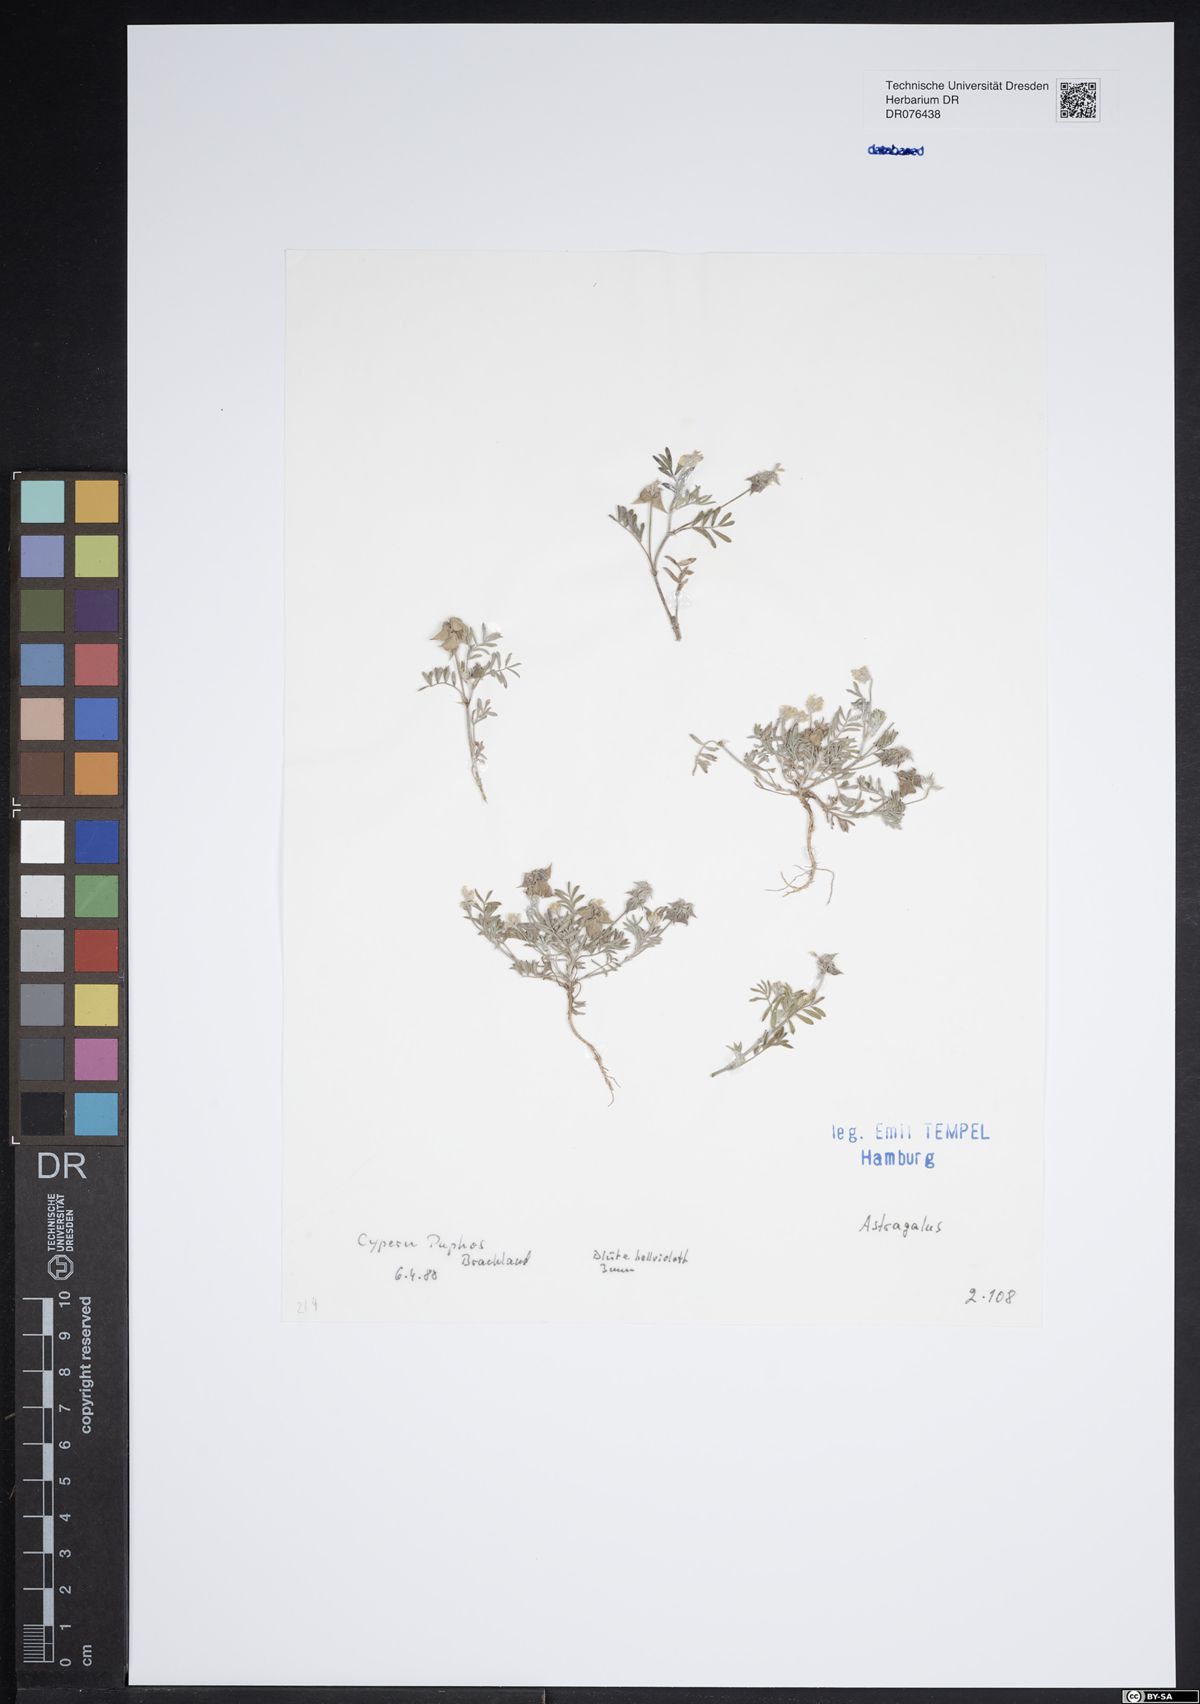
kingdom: Plantae
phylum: Tracheophyta
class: Magnoliopsida
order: Fabales
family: Fabaceae
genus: Astragalus
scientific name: Astragalus
